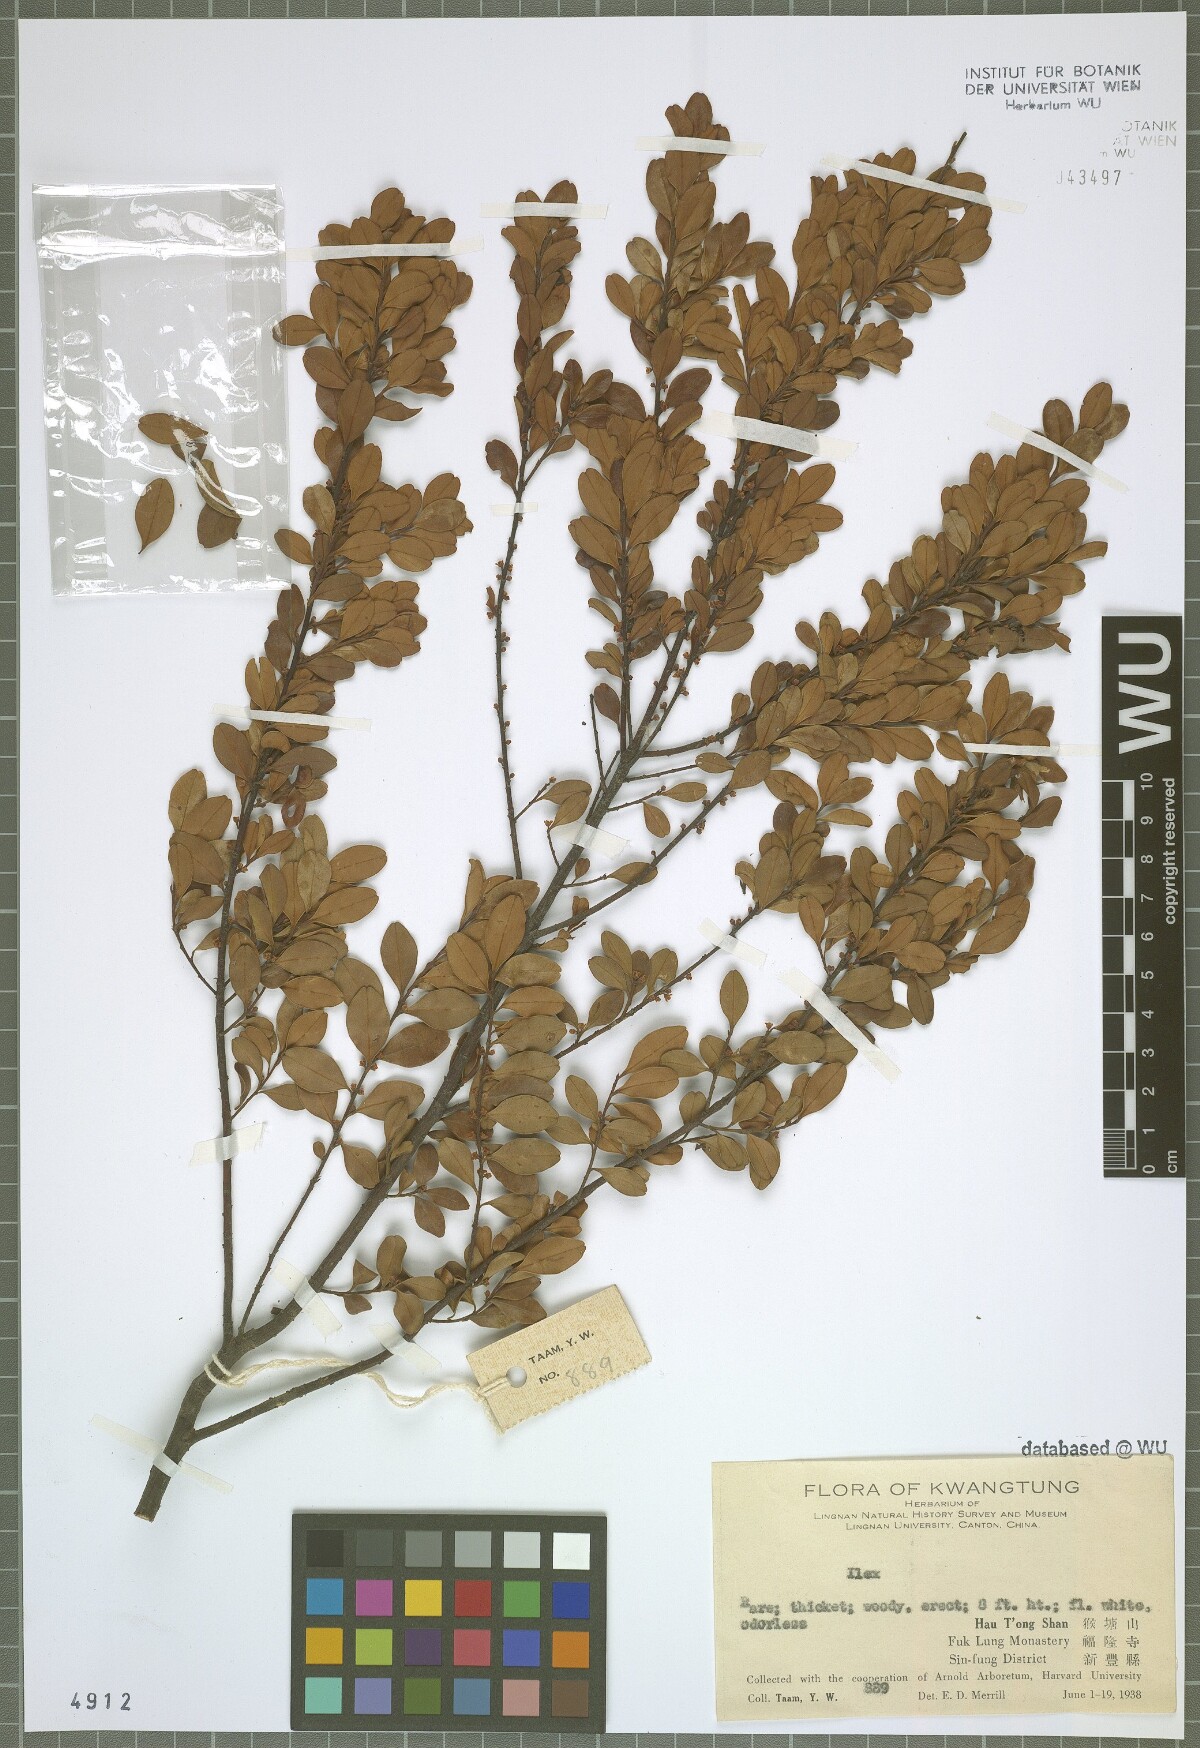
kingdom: Plantae
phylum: Tracheophyta
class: Magnoliopsida
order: Aquifoliales
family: Aquifoliaceae
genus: Ilex
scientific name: Ilex
